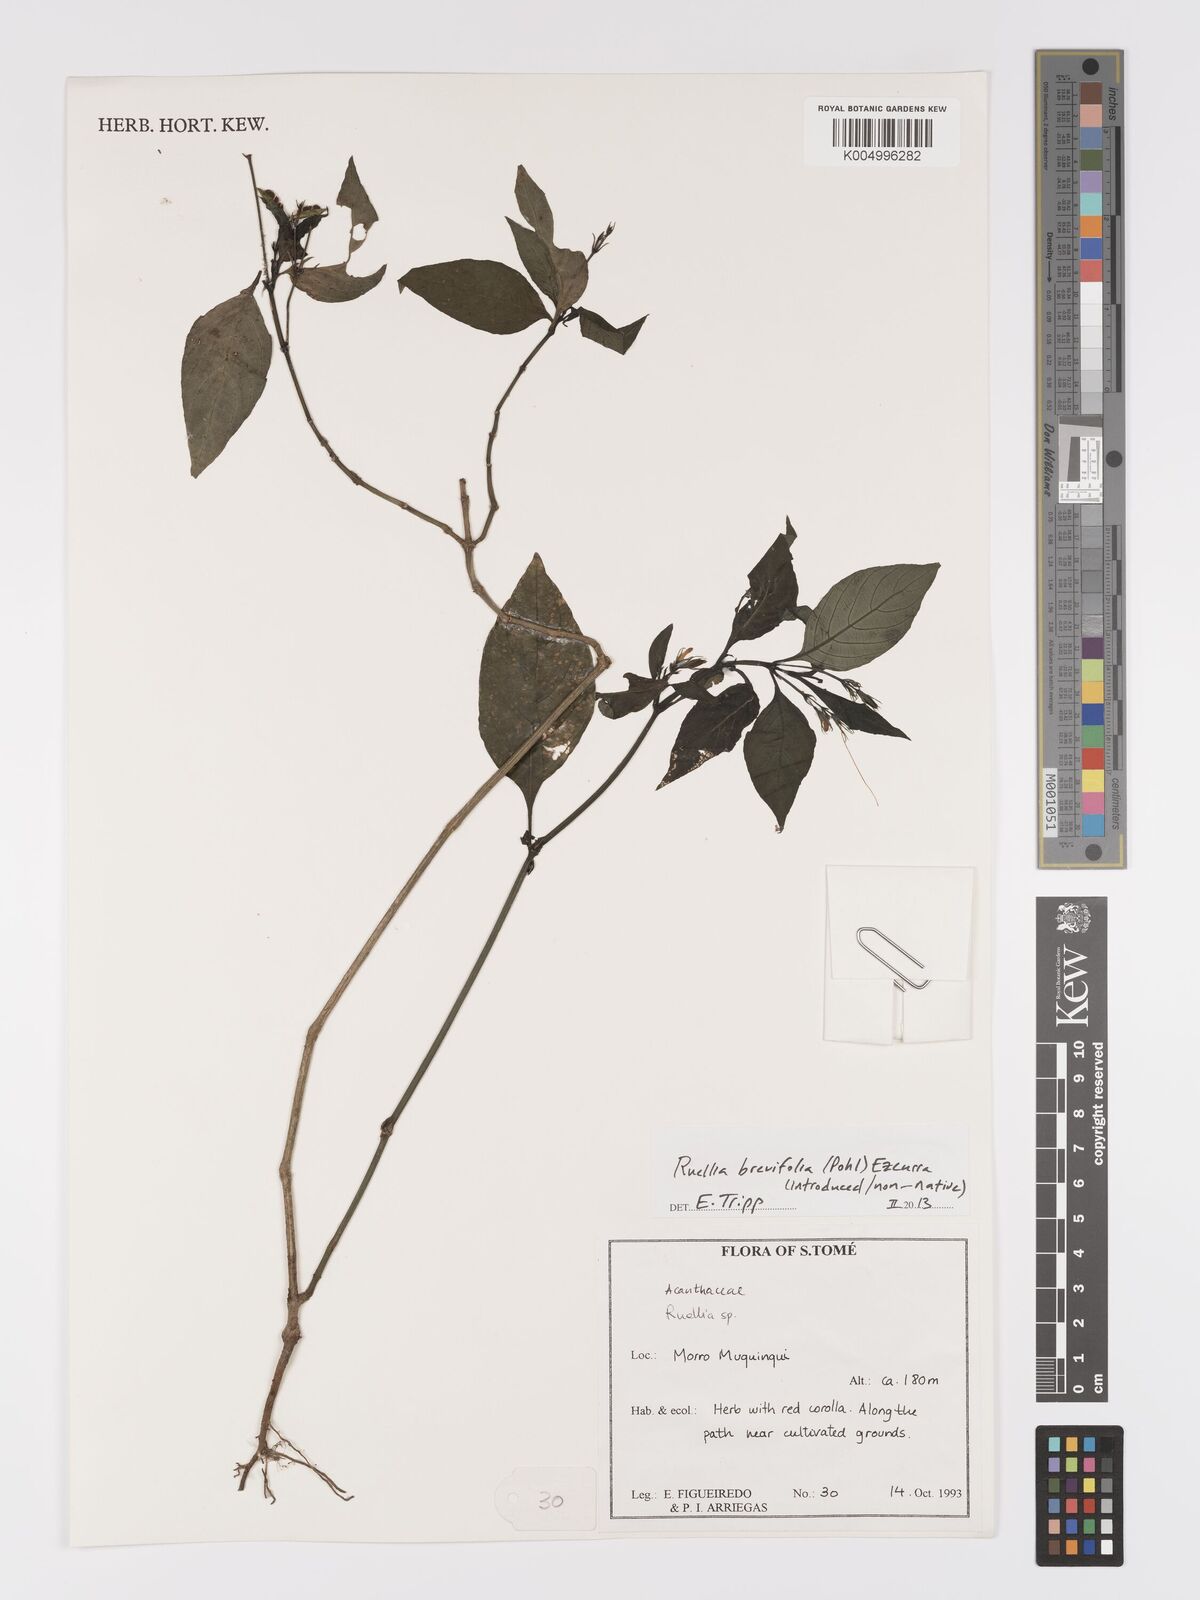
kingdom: Plantae
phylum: Tracheophyta
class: Magnoliopsida
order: Lamiales
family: Acanthaceae
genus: Ruellia
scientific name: Ruellia
